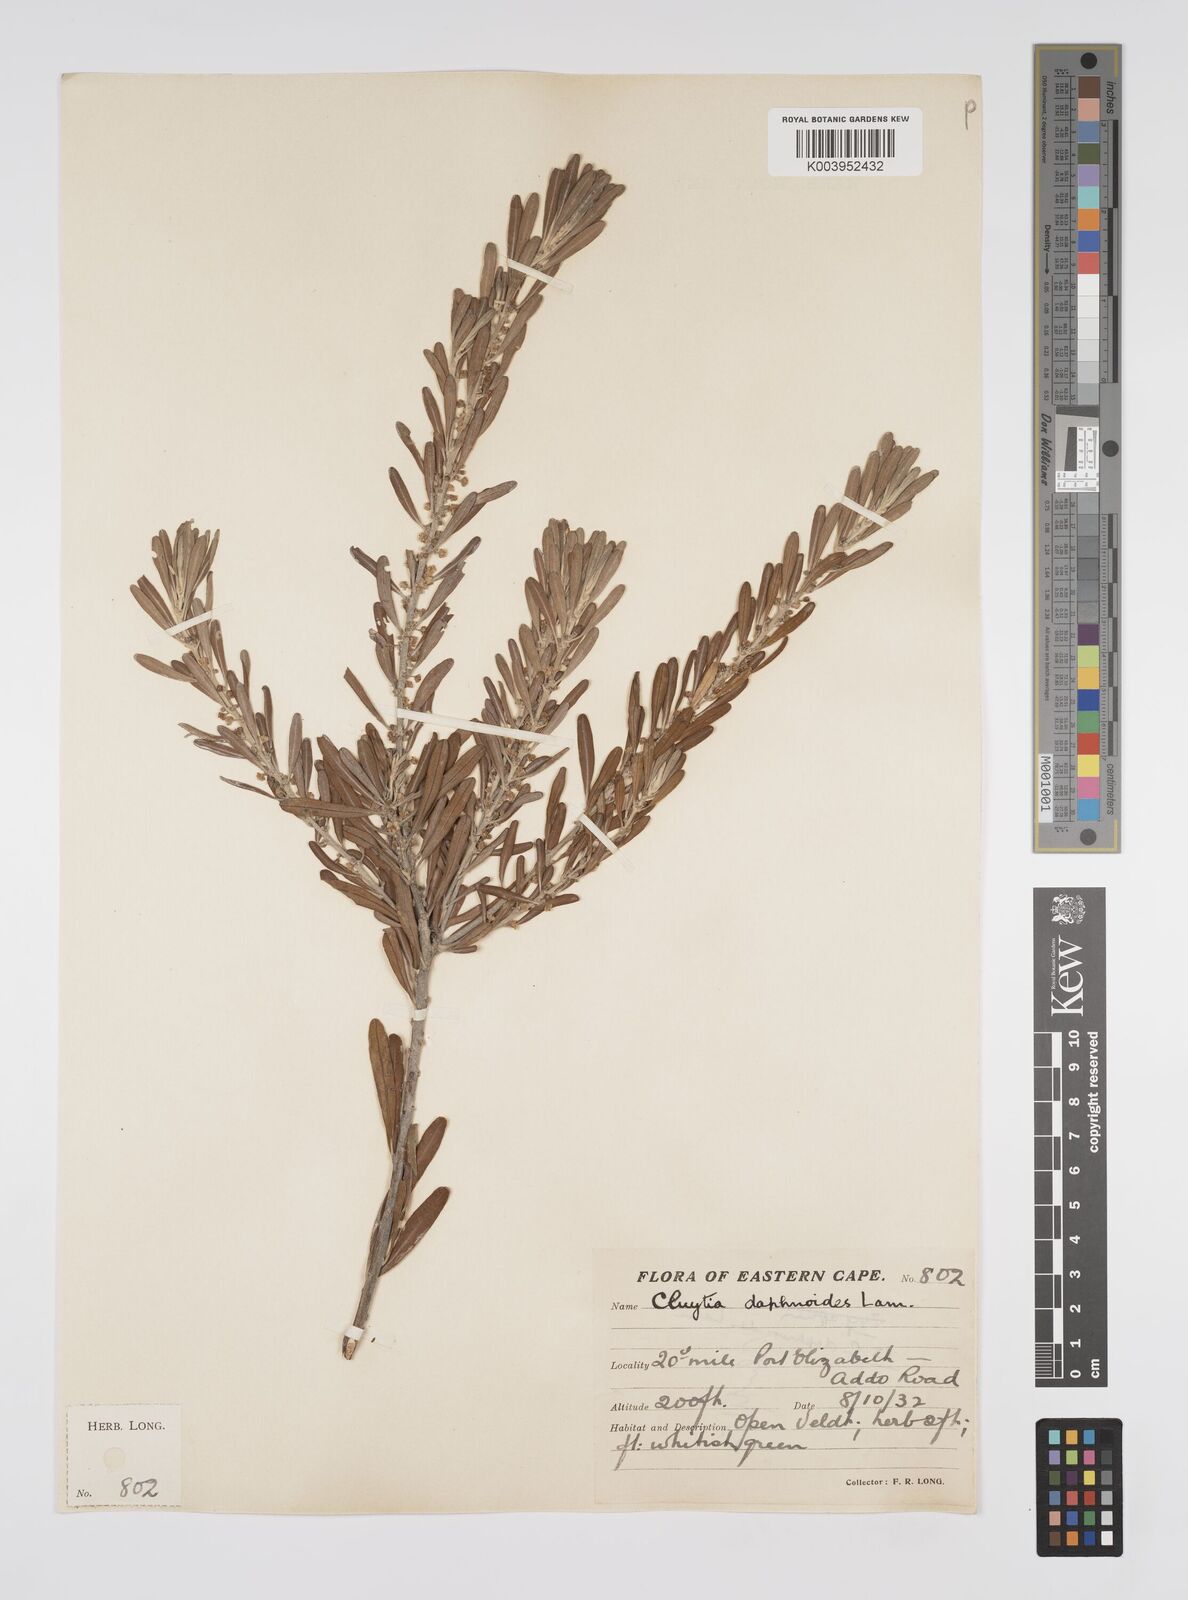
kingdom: Plantae
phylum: Tracheophyta
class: Magnoliopsida
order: Malpighiales
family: Peraceae
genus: Clutia
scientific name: Clutia daphnoides
